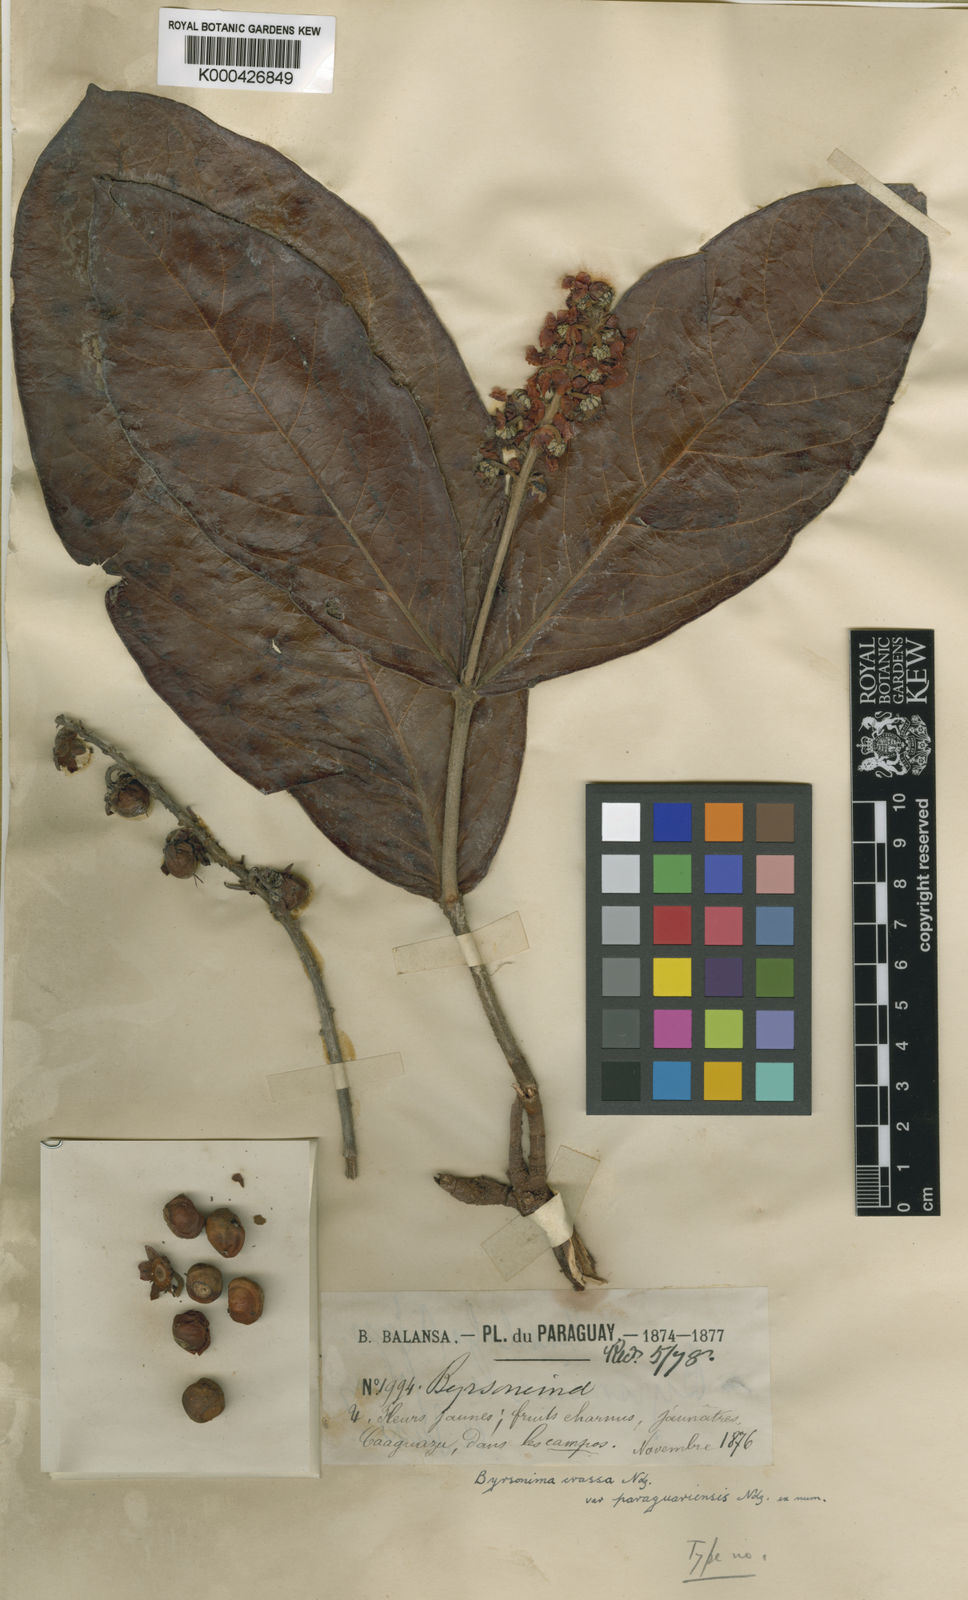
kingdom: Plantae
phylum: Tracheophyta
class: Magnoliopsida
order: Malpighiales
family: Malpighiaceae
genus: Byrsonima
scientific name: Byrsonima pachyphylla
